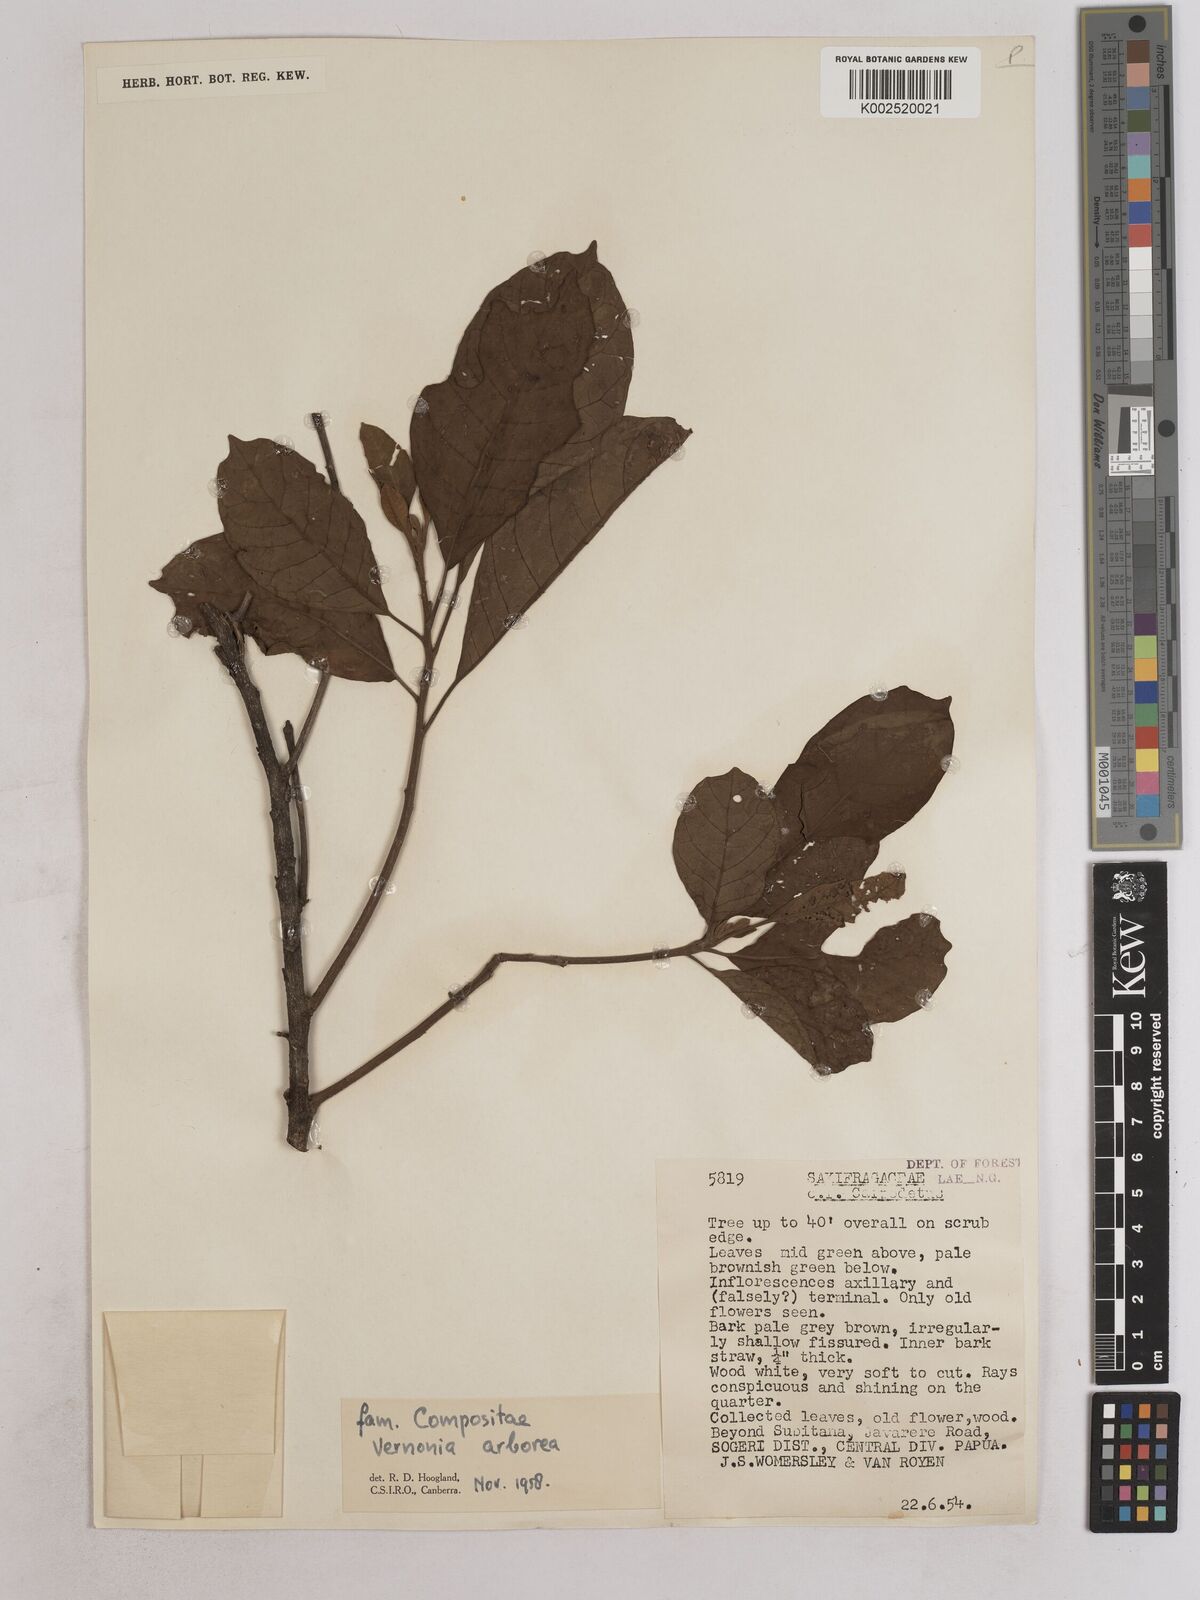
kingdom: Plantae
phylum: Tracheophyta
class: Magnoliopsida
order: Asterales
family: Asteraceae
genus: Strobocalyx
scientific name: Strobocalyx arborea
